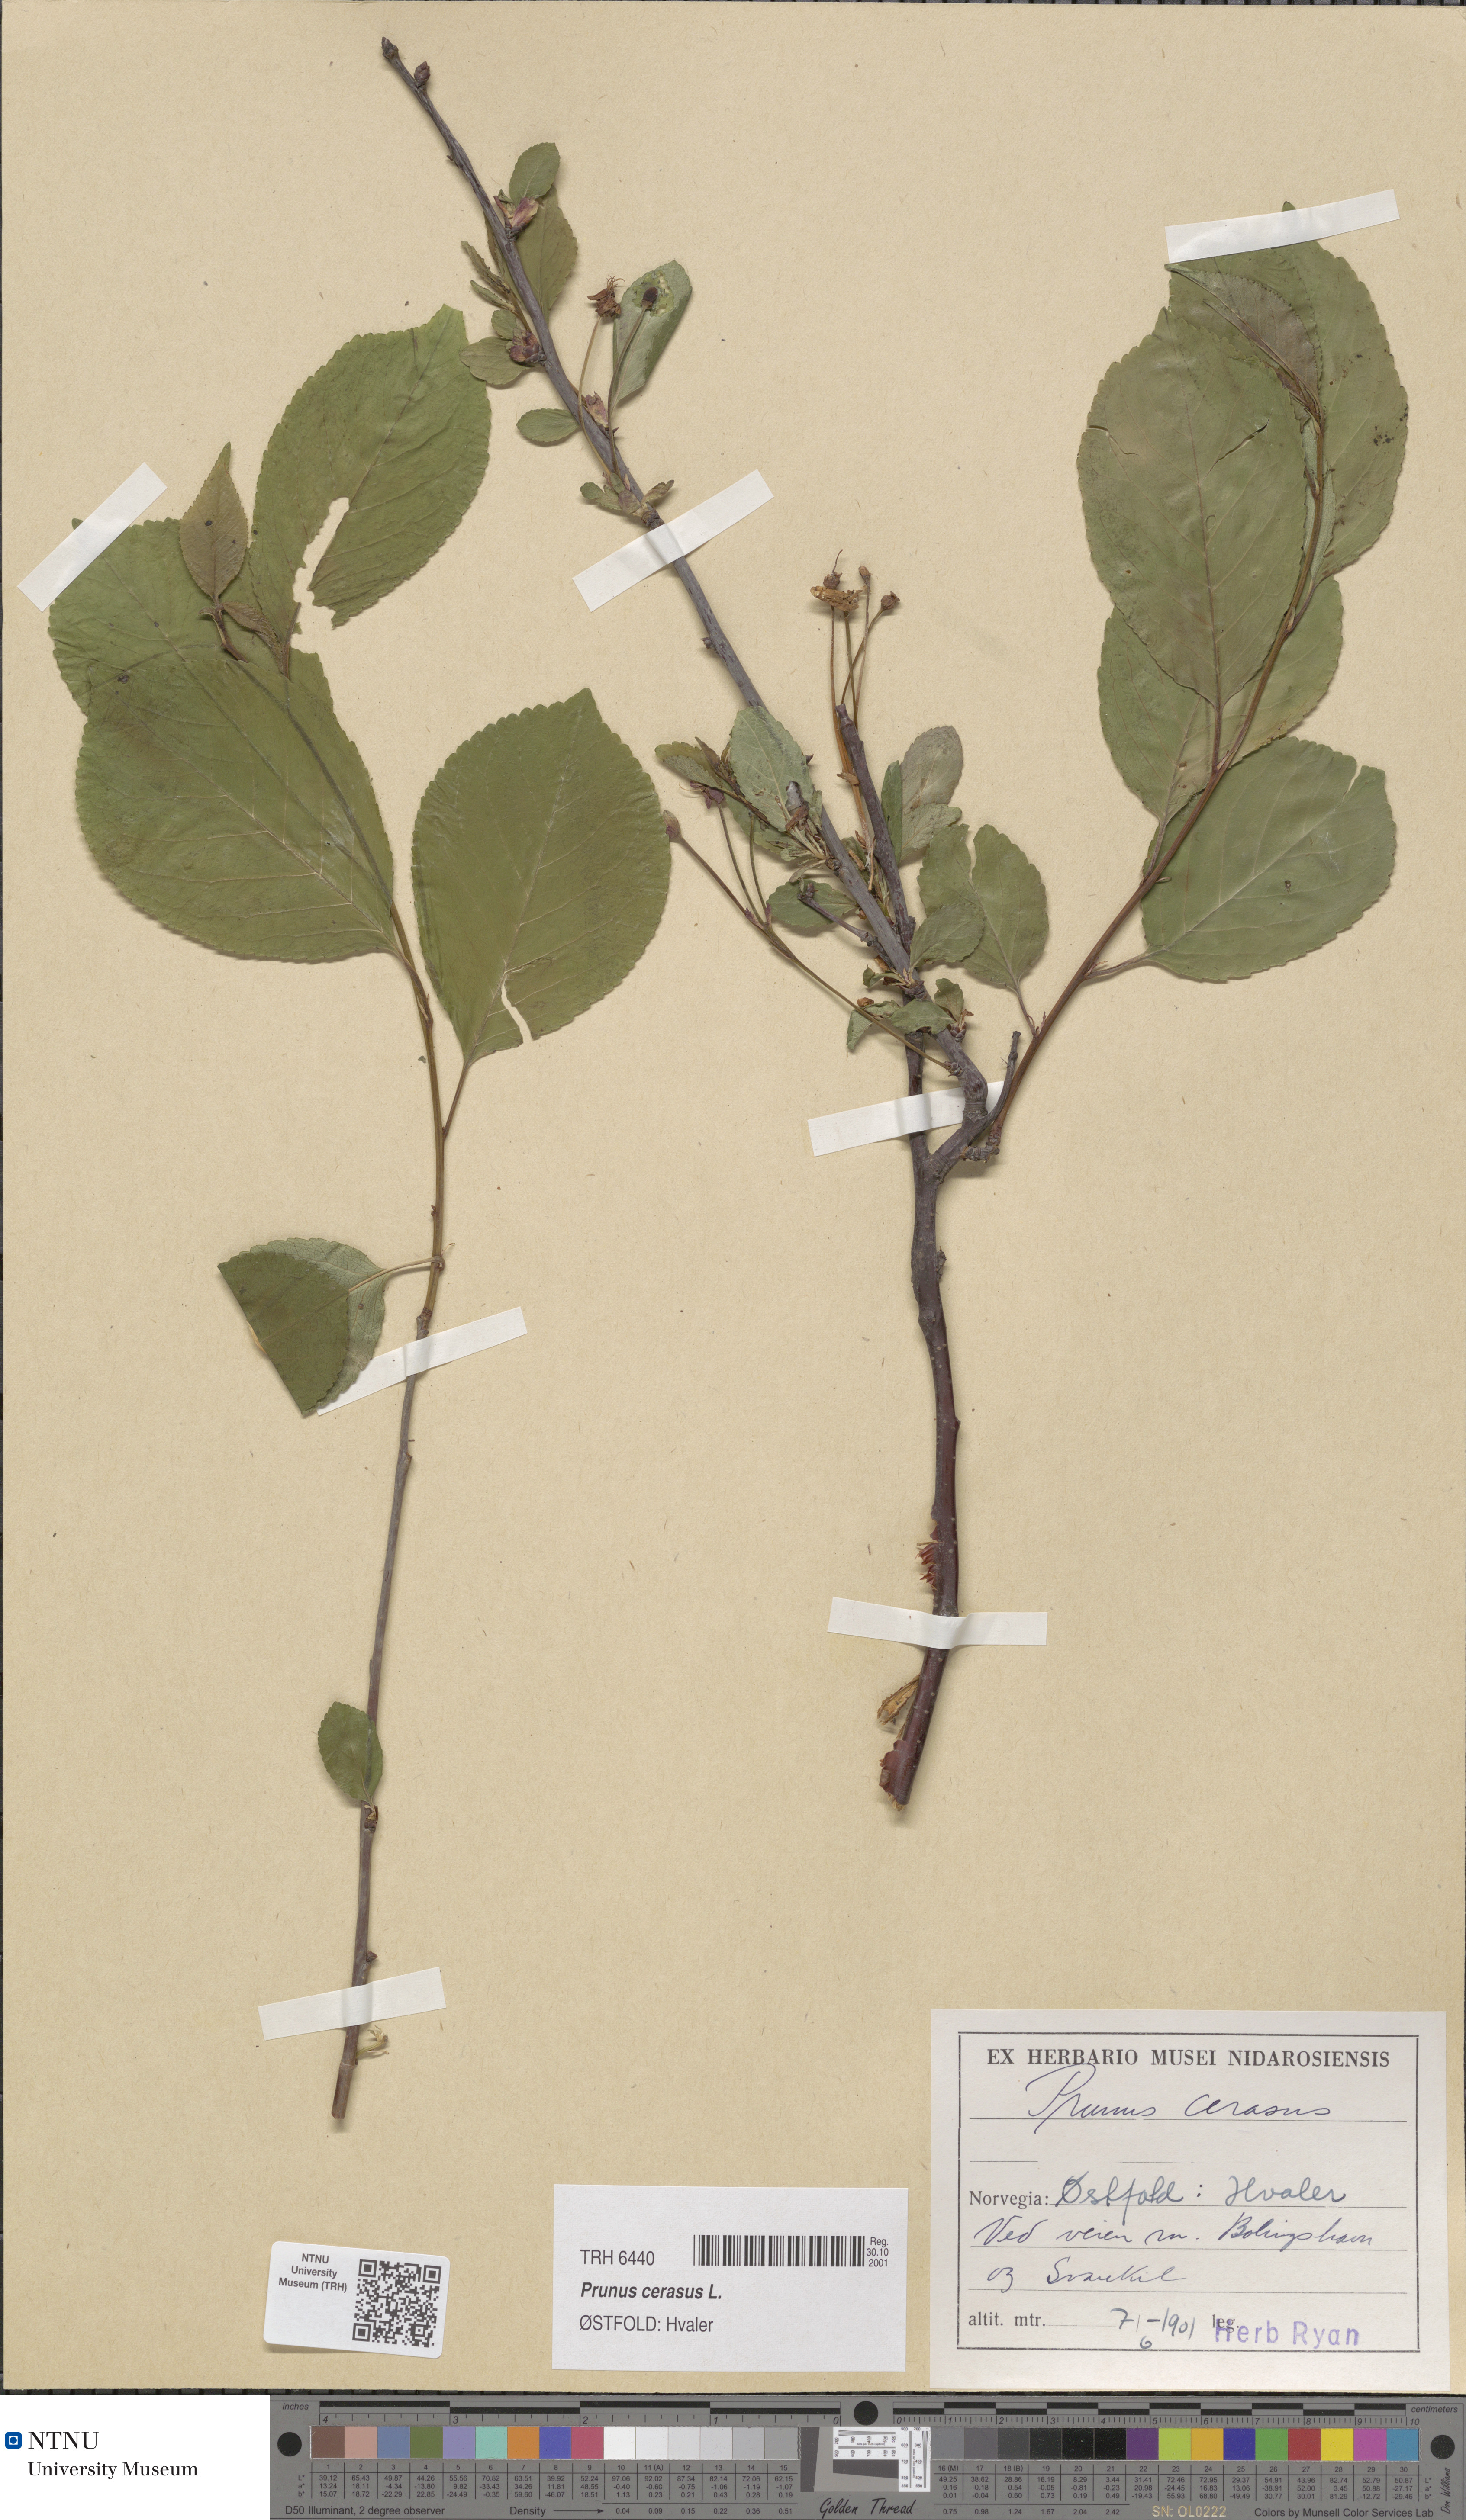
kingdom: Plantae
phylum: Tracheophyta
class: Magnoliopsida
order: Rosales
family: Rosaceae
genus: Prunus
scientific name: Prunus cerasus
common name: Morello cherry
